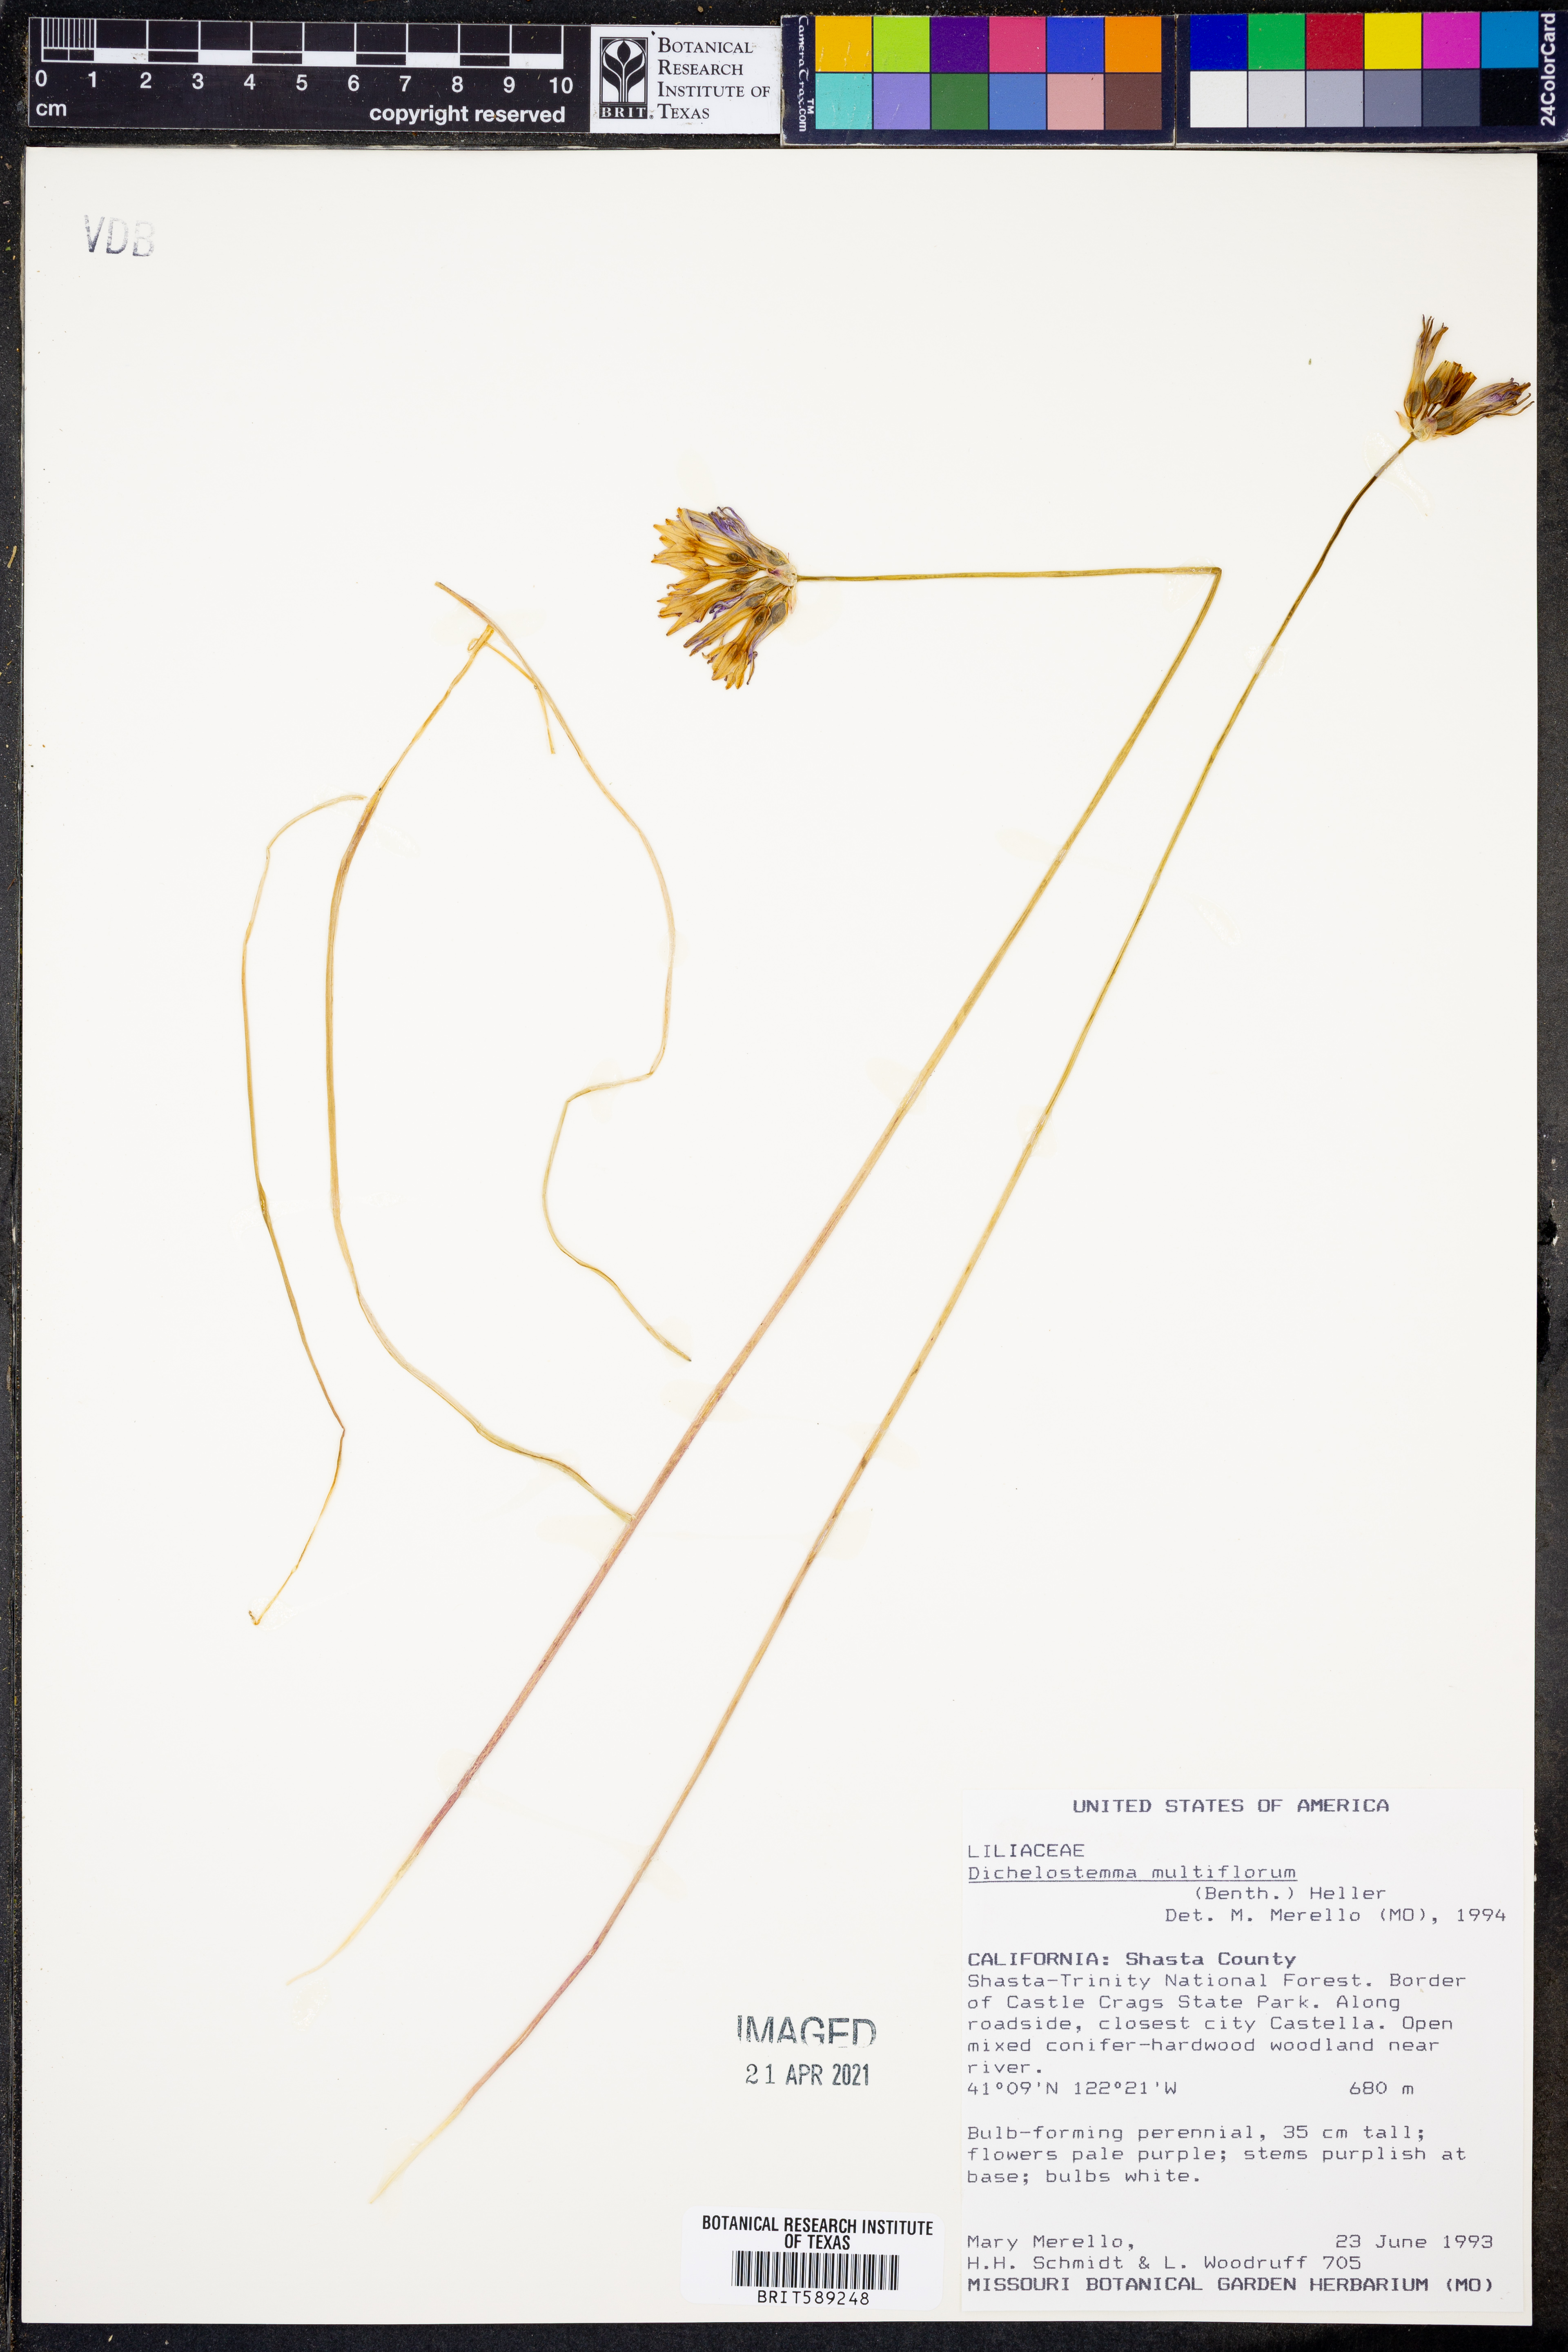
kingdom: Plantae
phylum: Tracheophyta
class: Liliopsida
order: Asparagales
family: Asparagaceae
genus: Dichelostemma
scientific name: Dichelostemma multiflorum
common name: Round-tooth ookow
